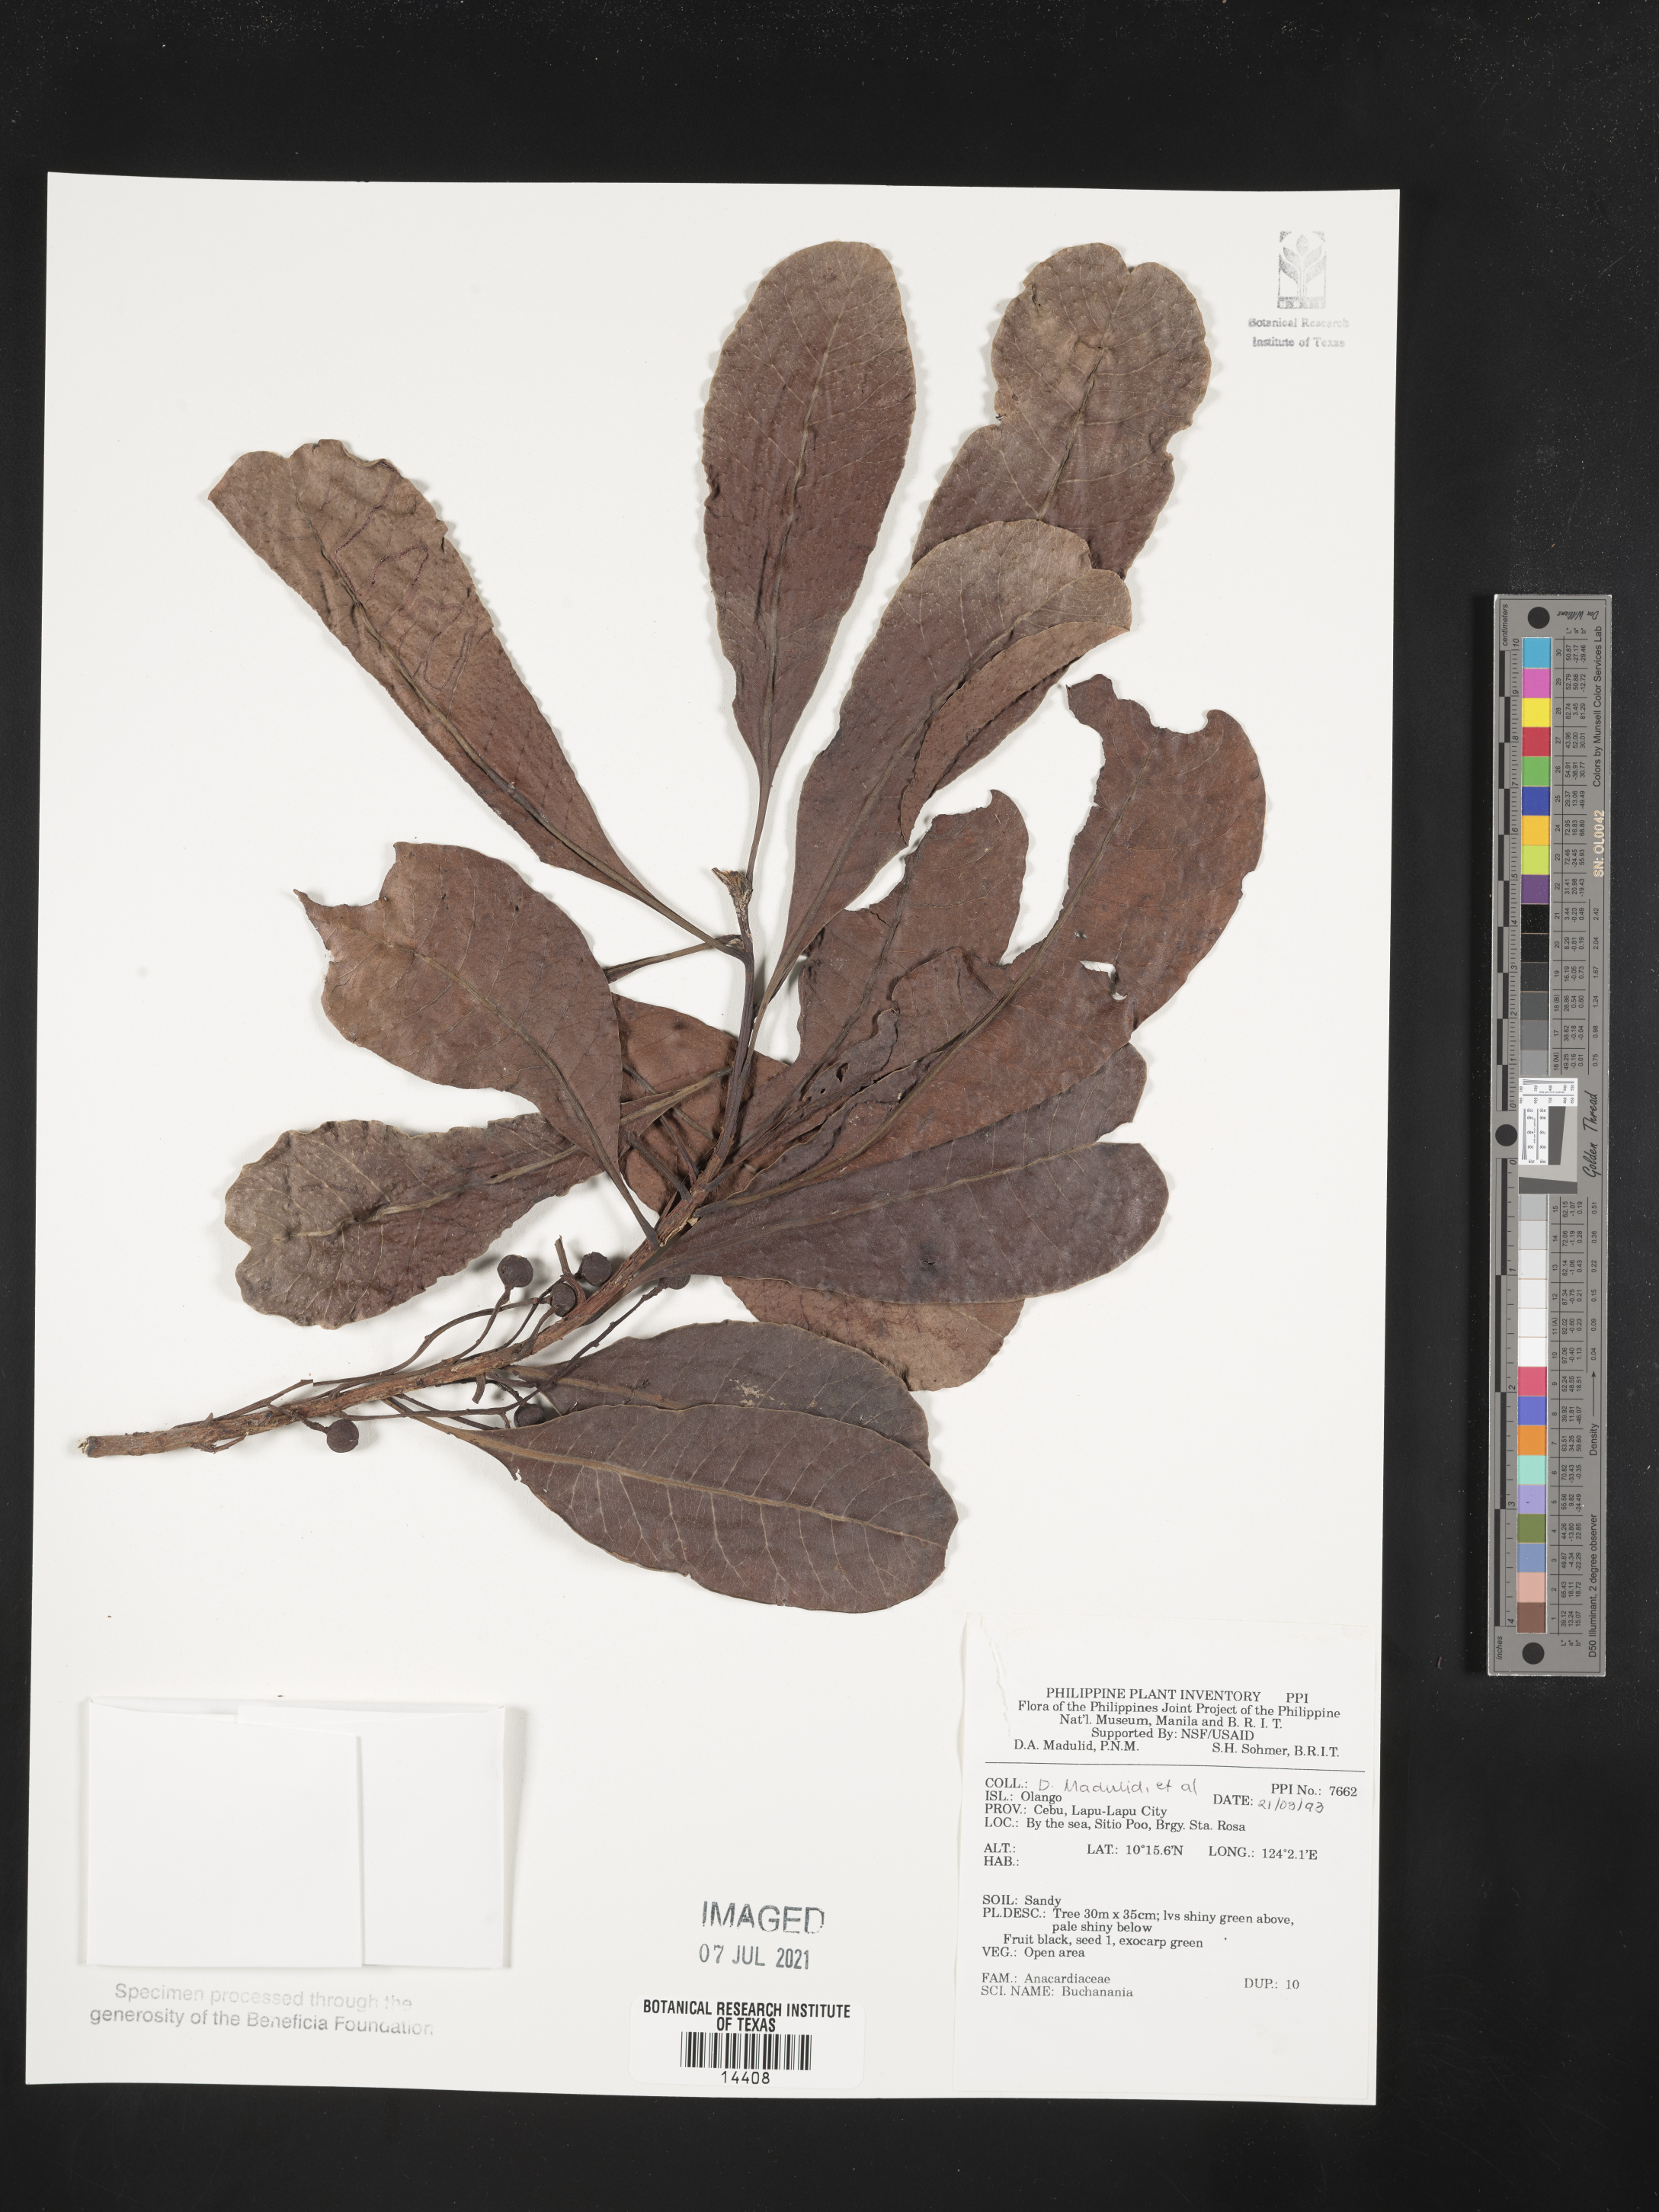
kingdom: Plantae
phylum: Tracheophyta
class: Magnoliopsida
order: Sapindales
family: Anacardiaceae
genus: Buchanania
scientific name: Buchanania
